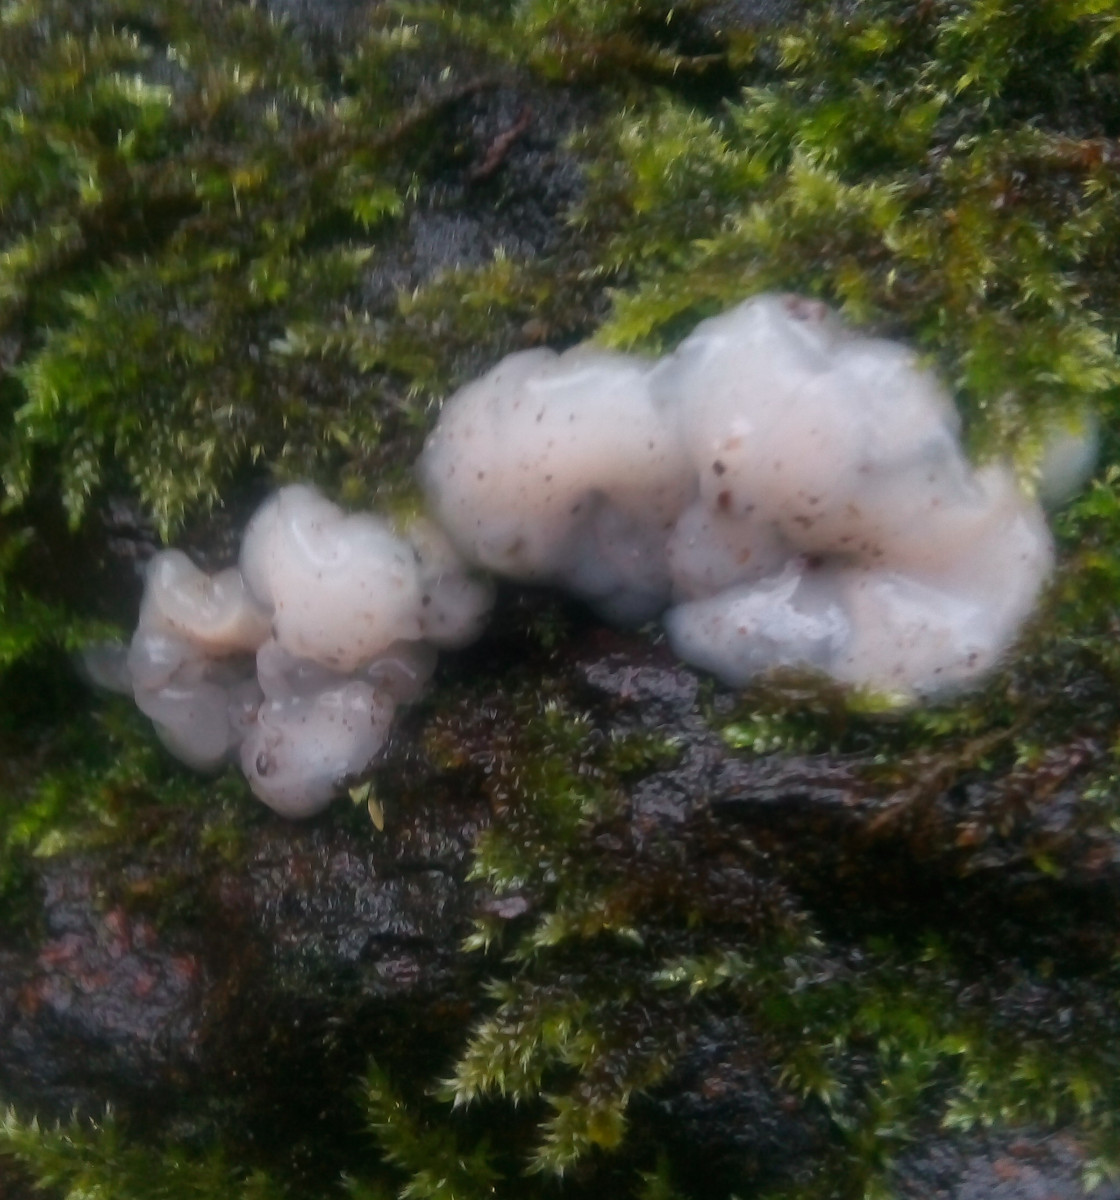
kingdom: Fungi
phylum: Basidiomycota
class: Agaricomycetes
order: Auriculariales
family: Auriculariaceae
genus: Exidia
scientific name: Exidia thuretiana
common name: hvidlig bævretop
